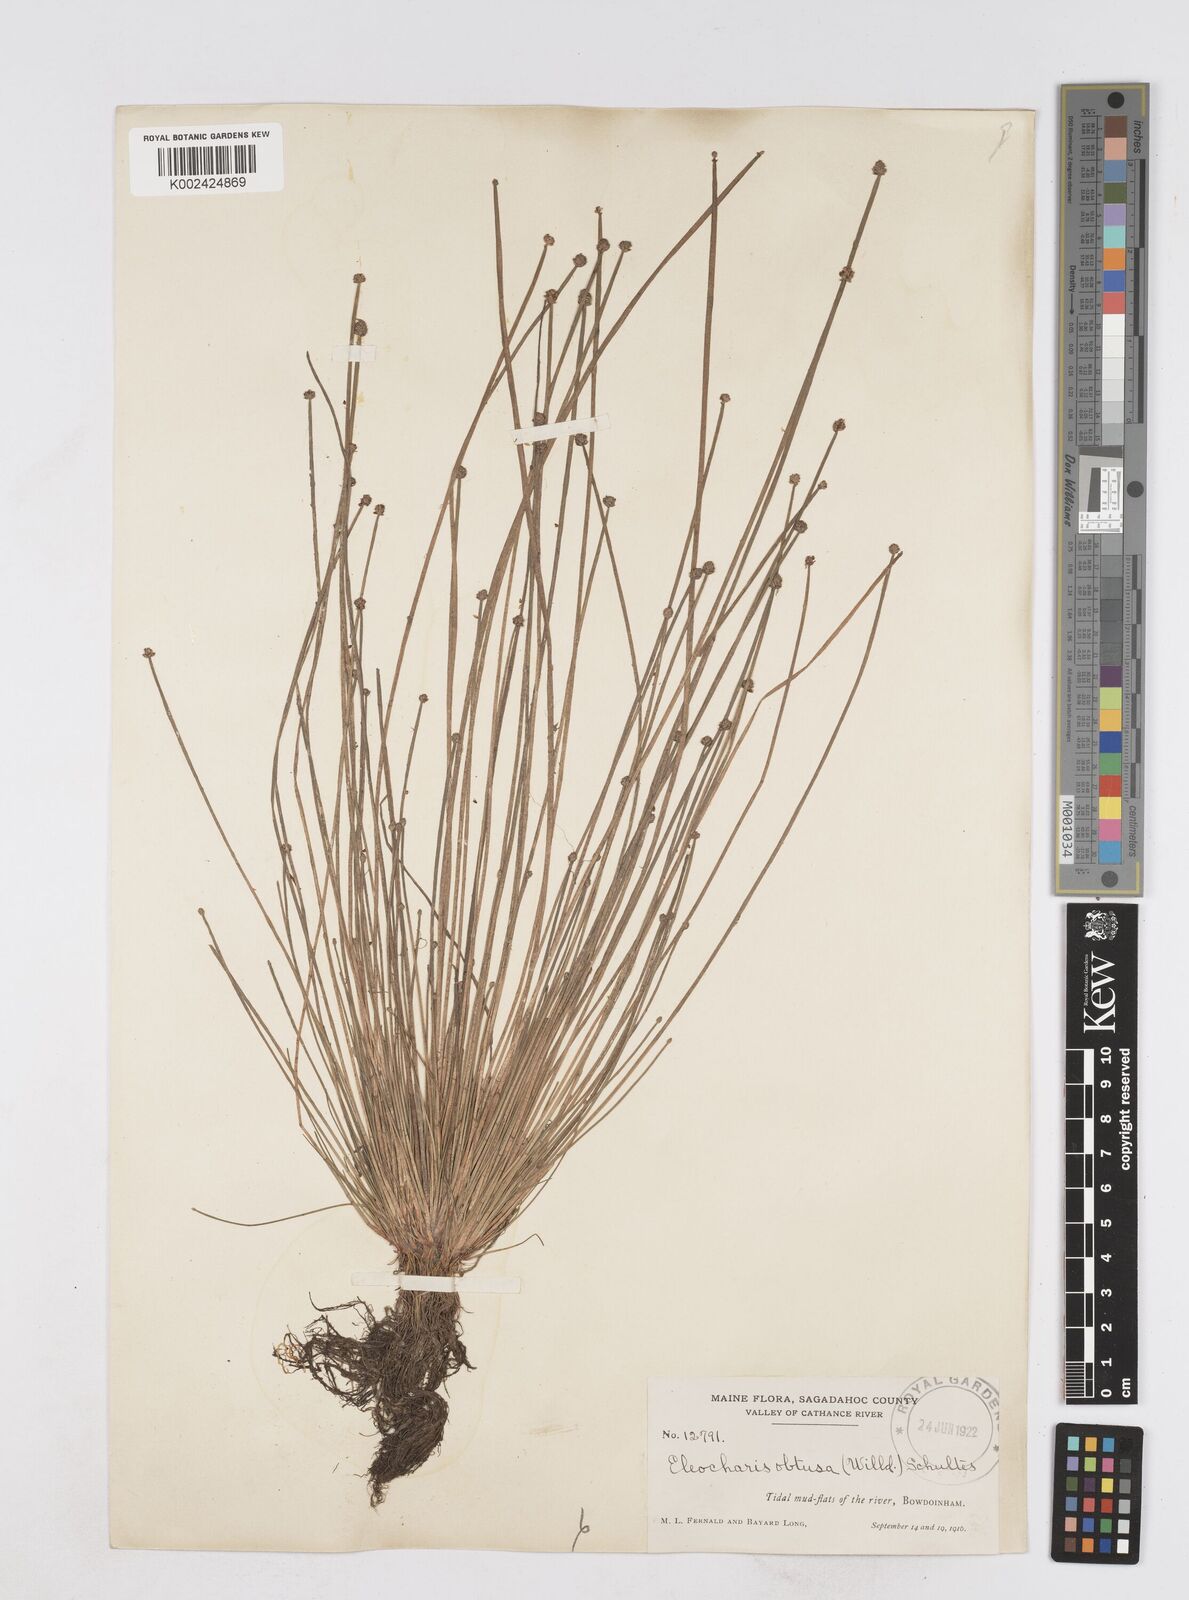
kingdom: Plantae
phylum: Tracheophyta
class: Liliopsida
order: Poales
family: Cyperaceae
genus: Eleocharis
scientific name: Eleocharis obtusa
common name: Blunt spikerush
